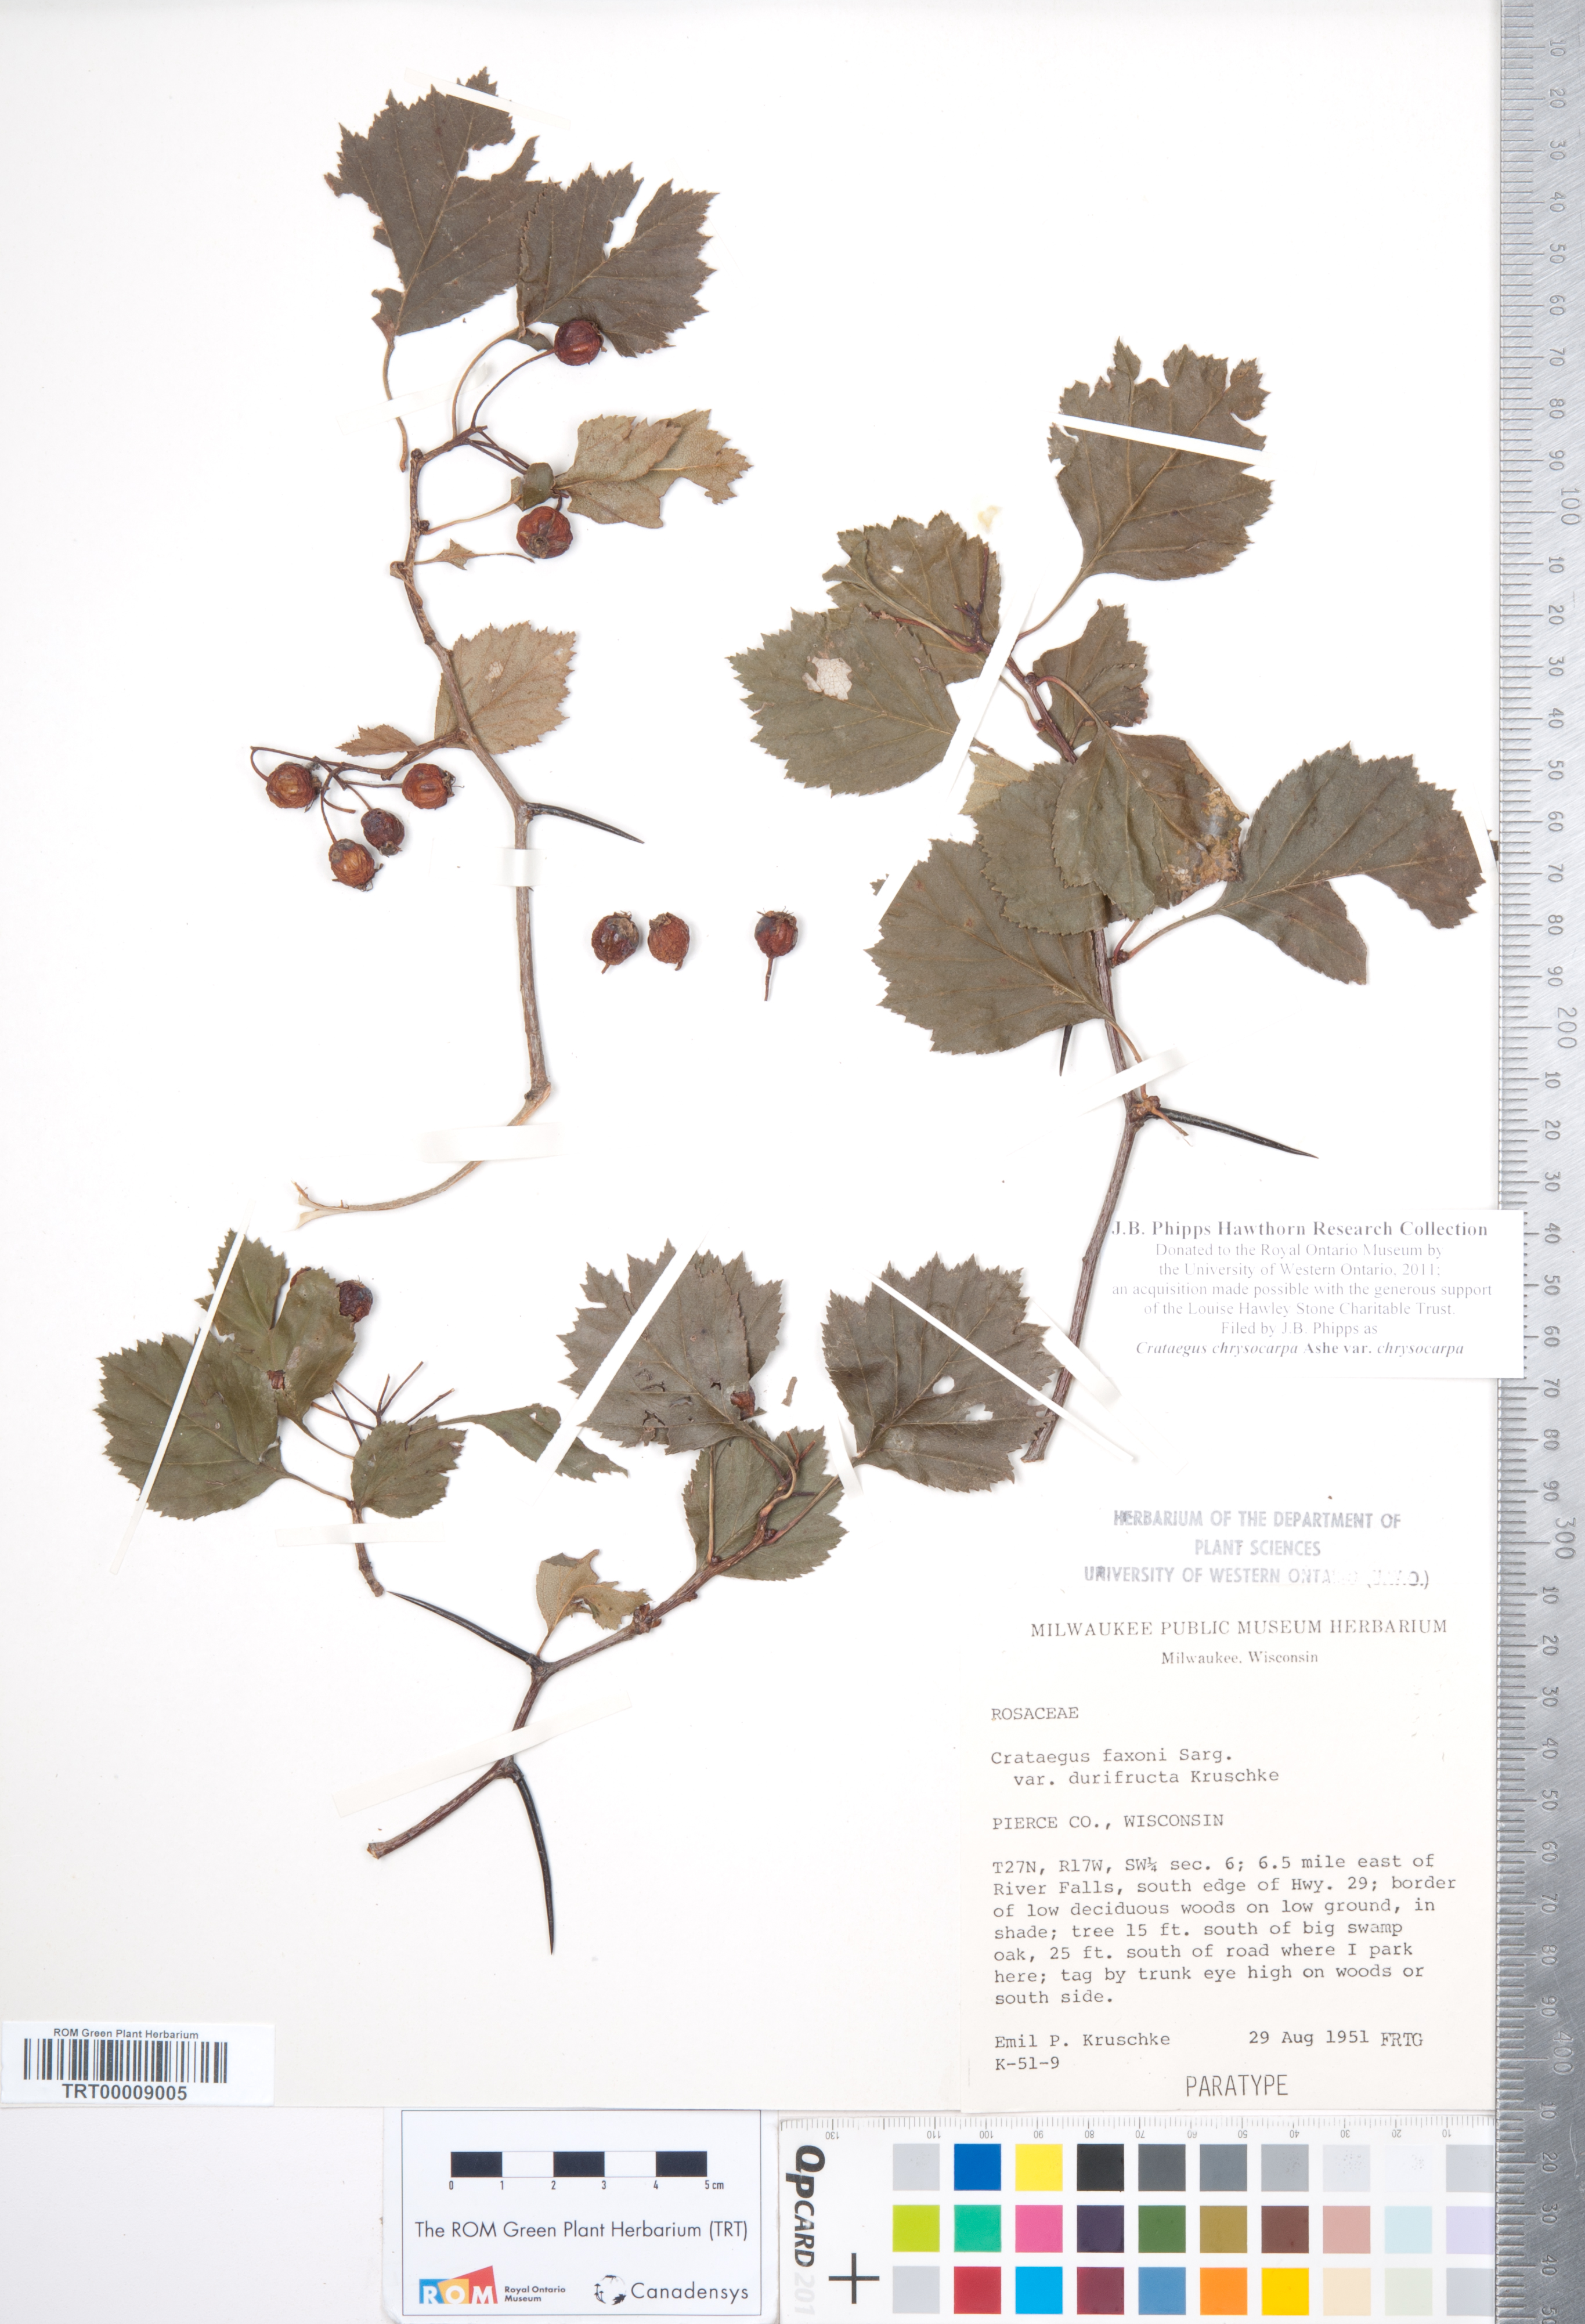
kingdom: Plantae
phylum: Tracheophyta
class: Magnoliopsida
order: Rosales
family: Rosaceae
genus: Crataegus
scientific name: Crataegus chrysocarpa
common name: Fire-berry hawthorn
